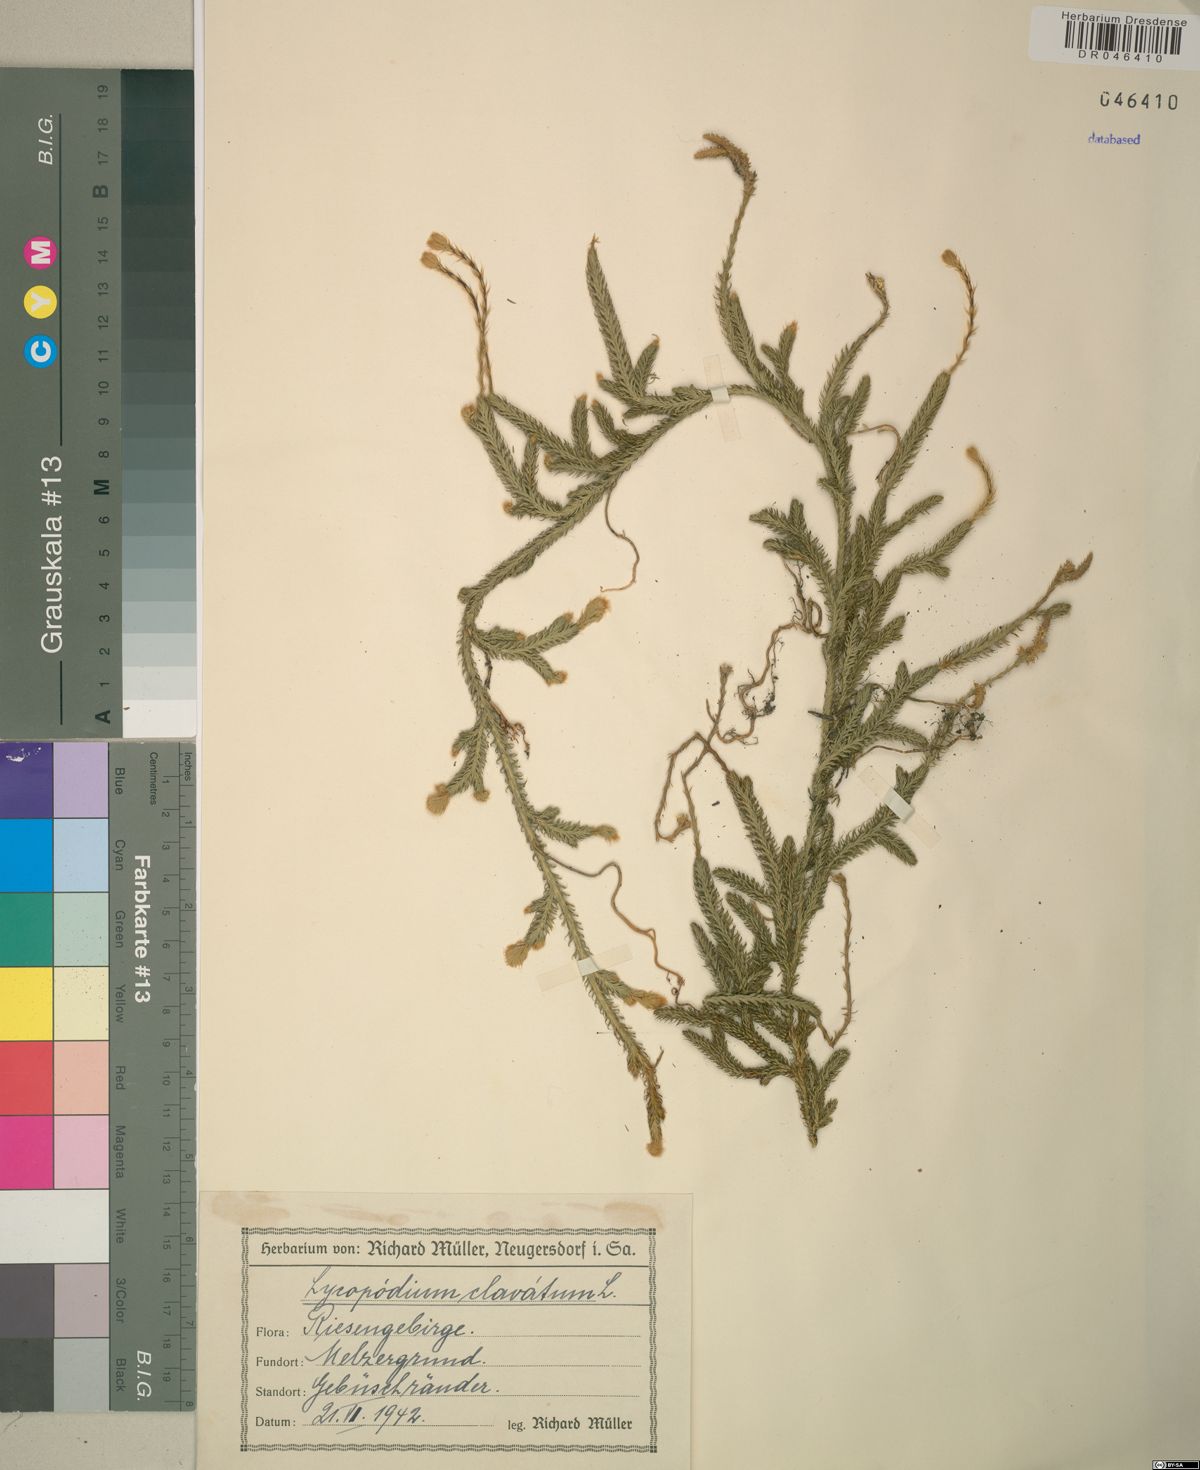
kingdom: Plantae
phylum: Tracheophyta
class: Lycopodiopsida
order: Lycopodiales
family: Lycopodiaceae
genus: Lycopodium
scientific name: Lycopodium clavatum
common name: Stag's-horn clubmoss
